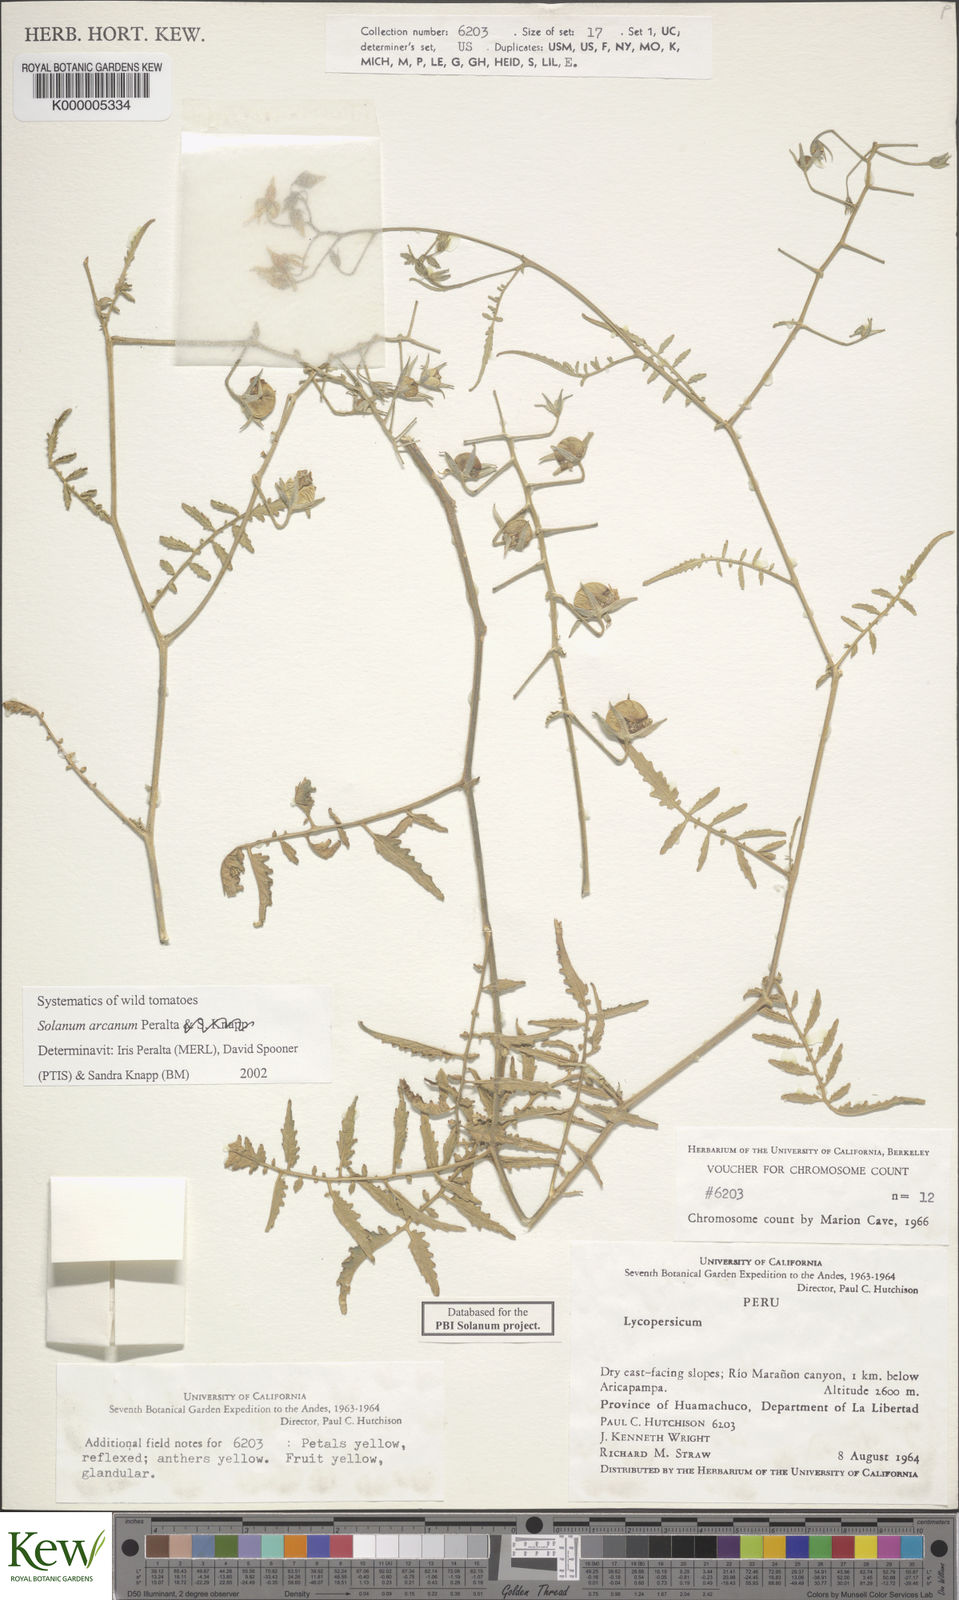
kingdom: Plantae
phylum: Tracheophyta
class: Magnoliopsida
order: Solanales
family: Solanaceae
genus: Solanum
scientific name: Solanum arcanum
